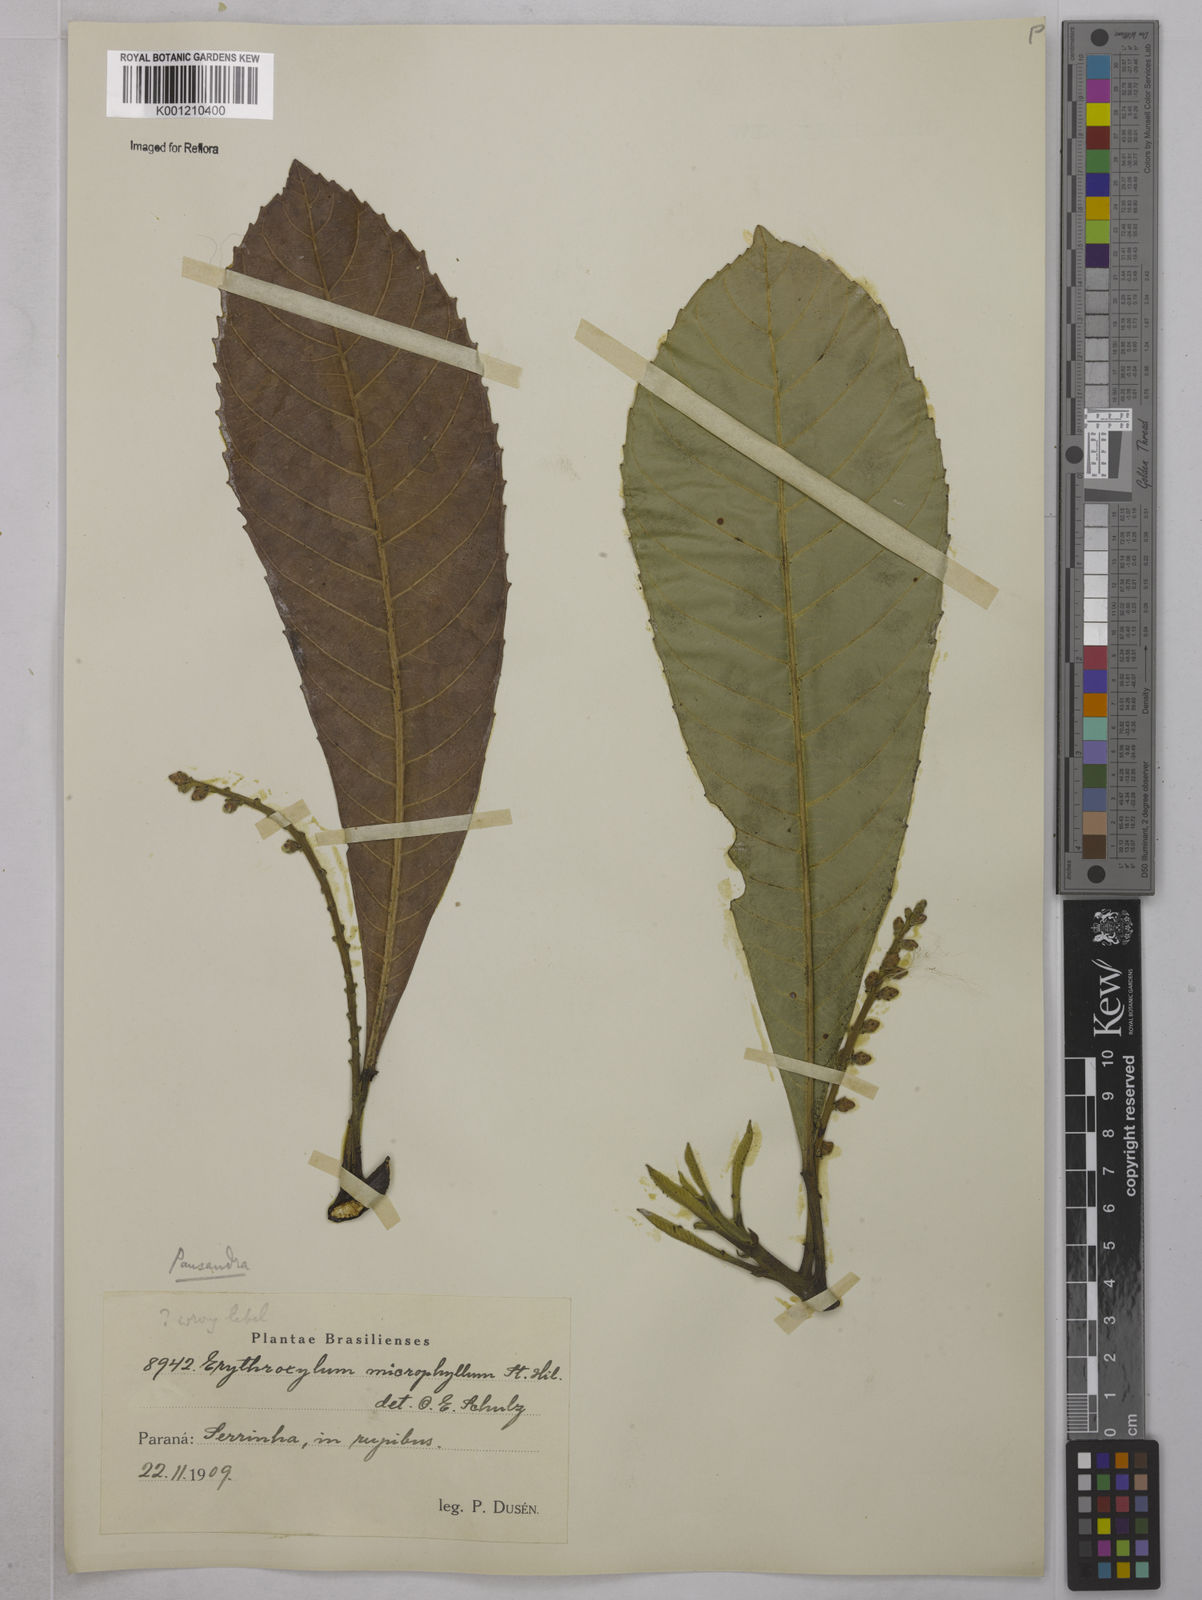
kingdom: Plantae
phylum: Tracheophyta
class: Magnoliopsida
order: Malpighiales
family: Euphorbiaceae
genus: Pausandra
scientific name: Pausandra morisiana
